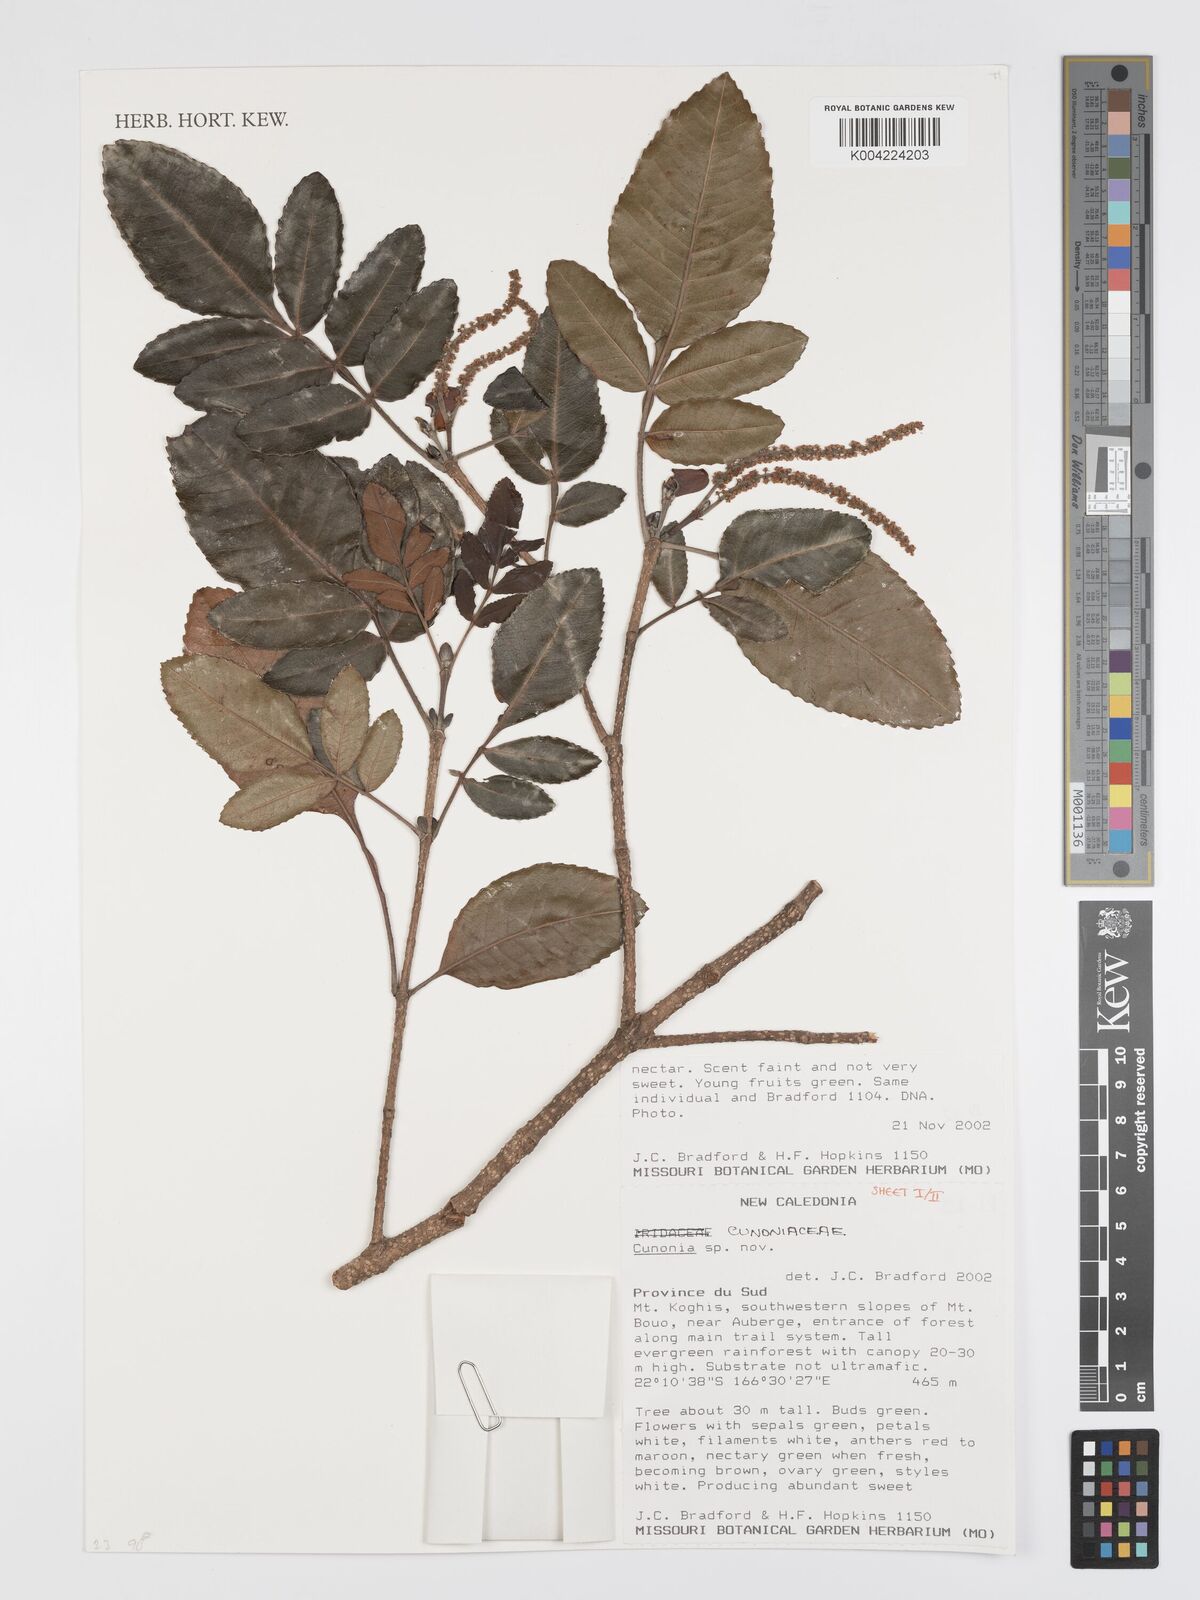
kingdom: Plantae
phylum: Tracheophyta
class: Magnoliopsida
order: Oxalidales
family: Cunoniaceae
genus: Cunonia
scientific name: Cunonia koghicola
